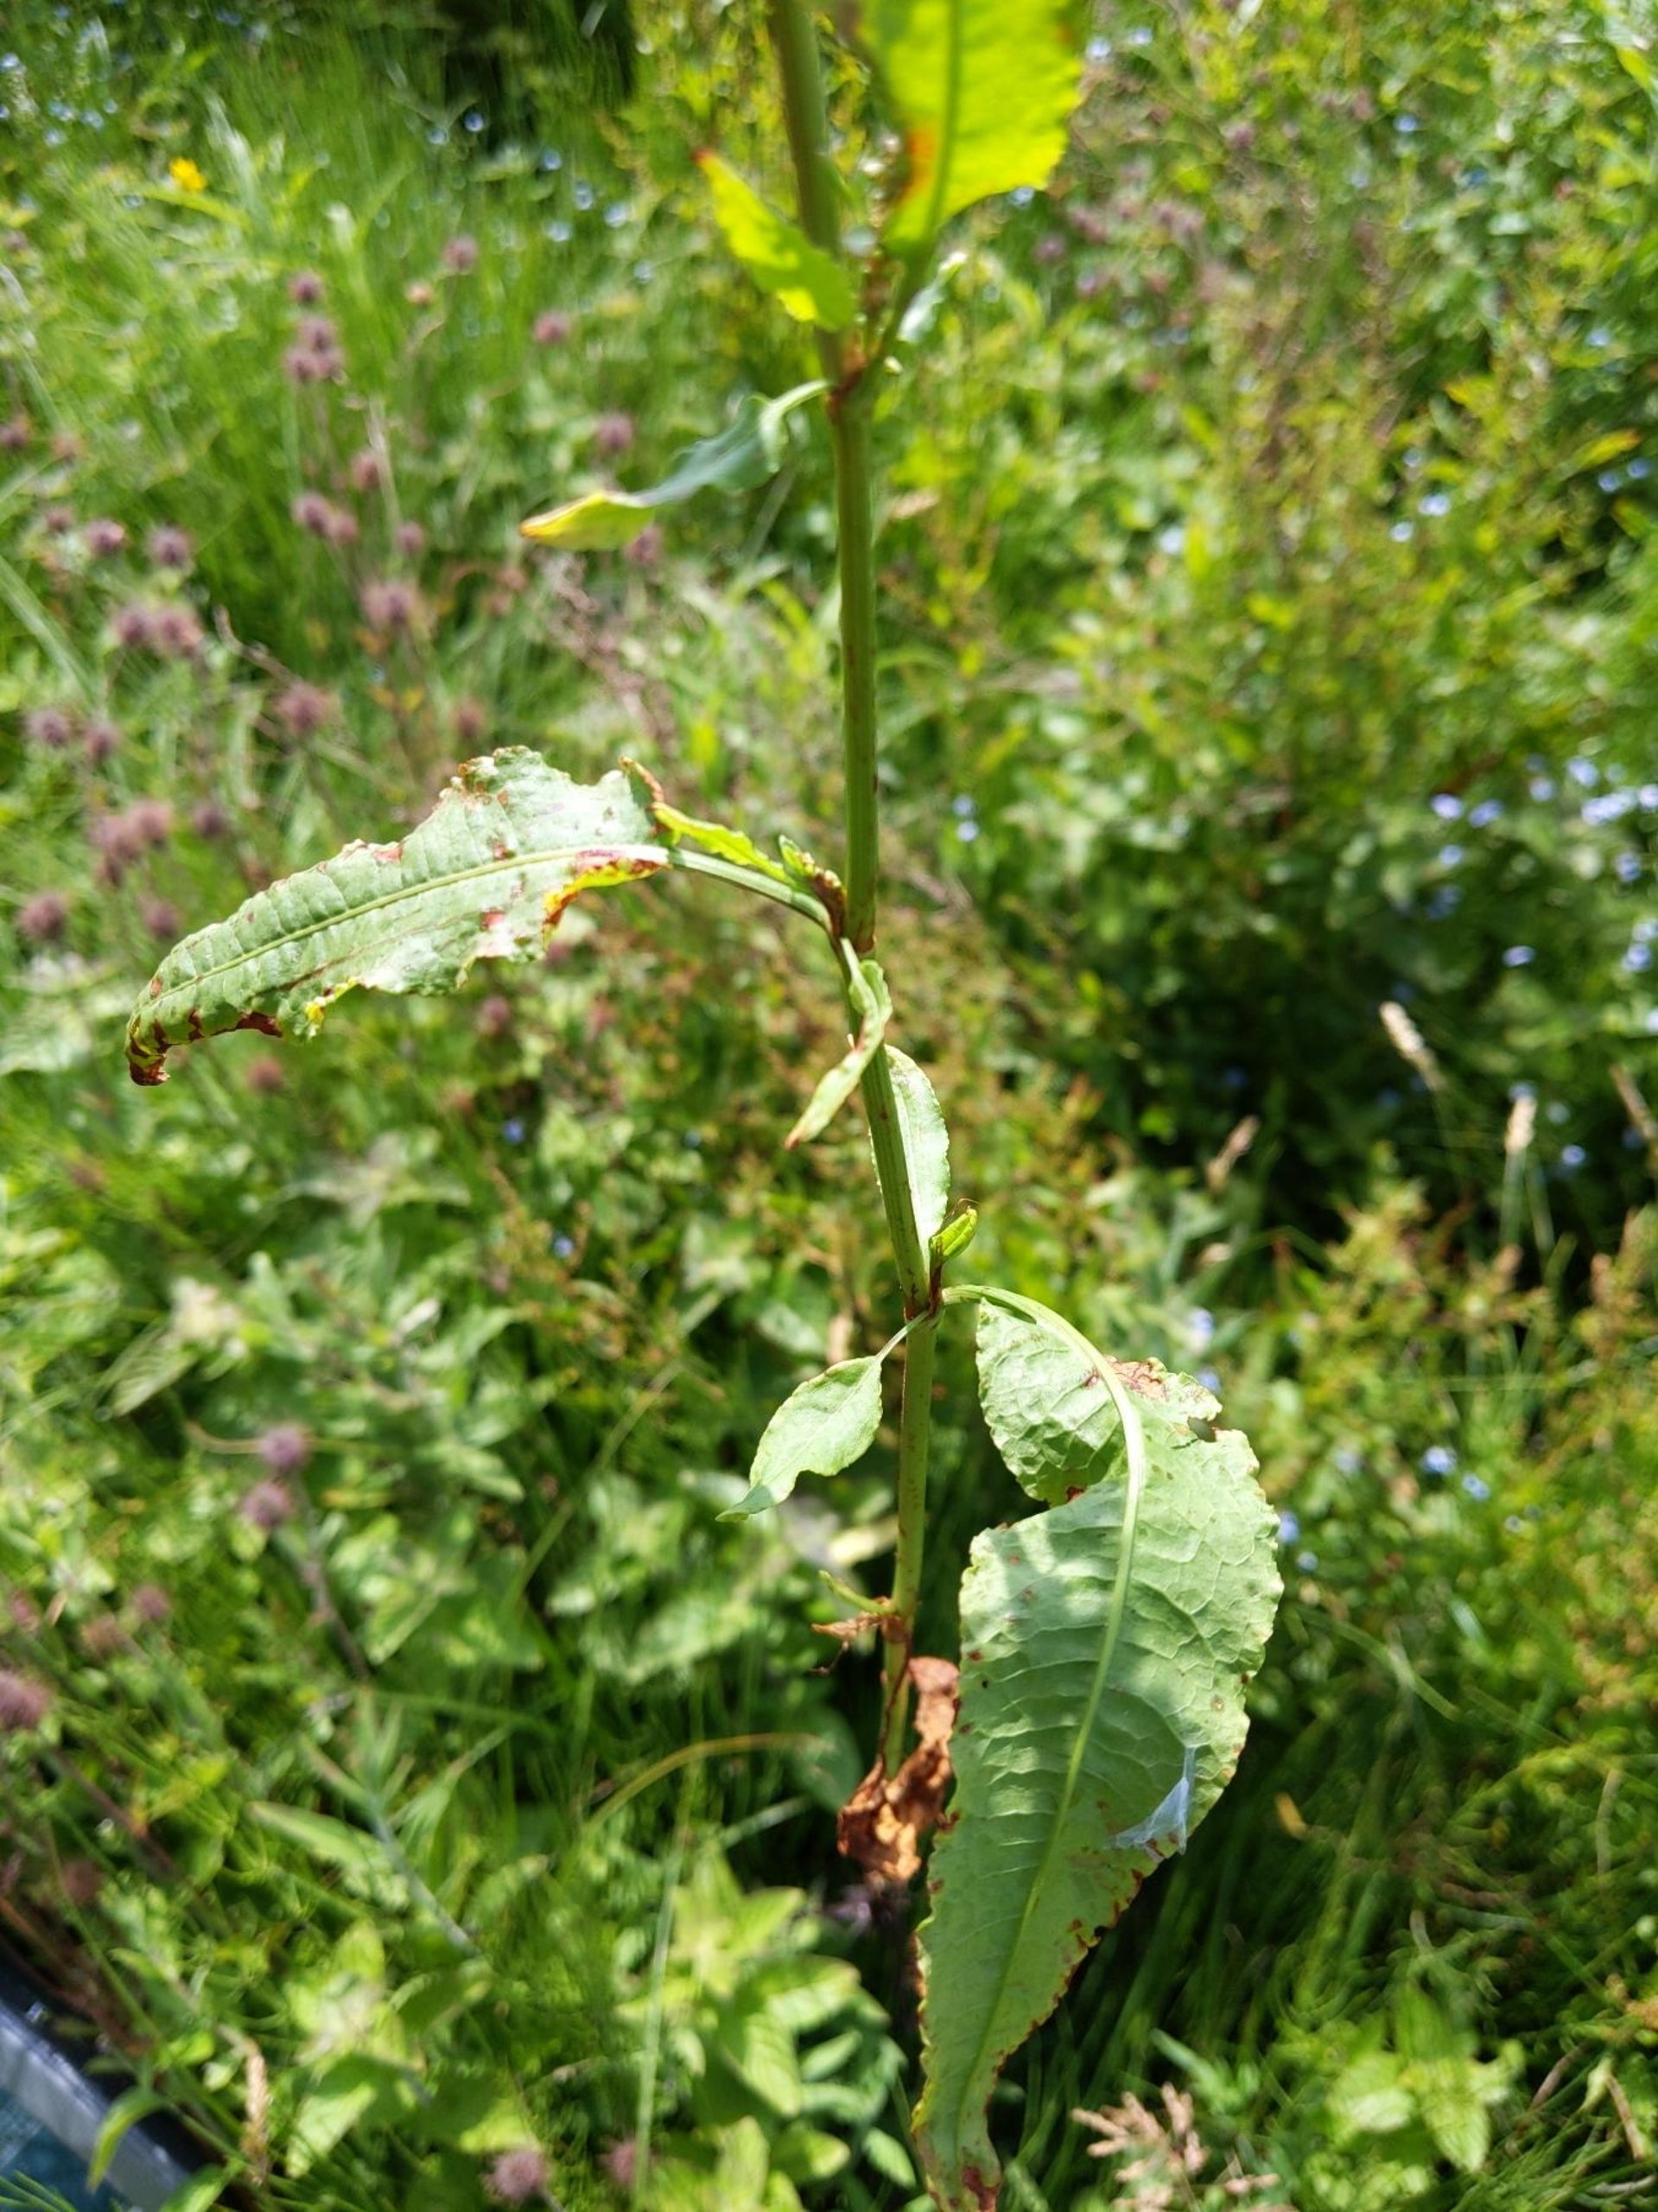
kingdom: Plantae
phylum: Tracheophyta
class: Magnoliopsida
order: Caryophyllales
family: Polygonaceae
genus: Rumex
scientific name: Rumex conglomeratus
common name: Nøgle-skræppe
